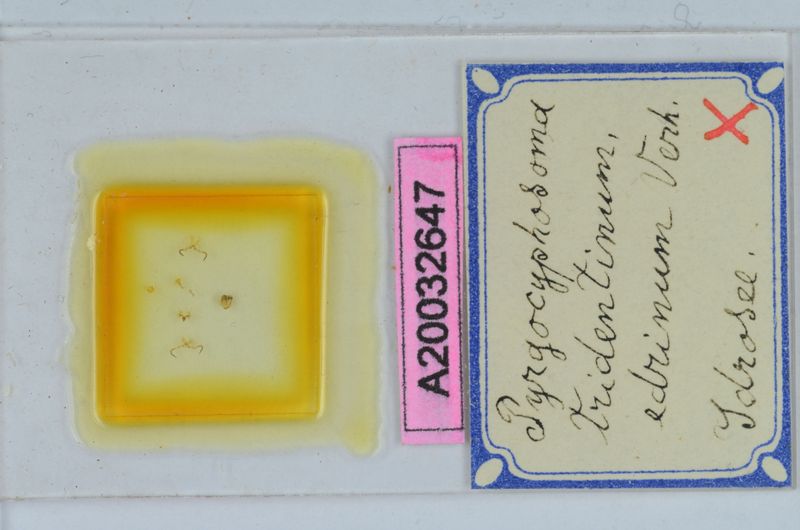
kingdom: Animalia
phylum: Arthropoda
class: Diplopoda
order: Chordeumatida
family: Craspedosomatidae
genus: Pyrgocyphosoma
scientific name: Pyrgocyphosoma edrinum
